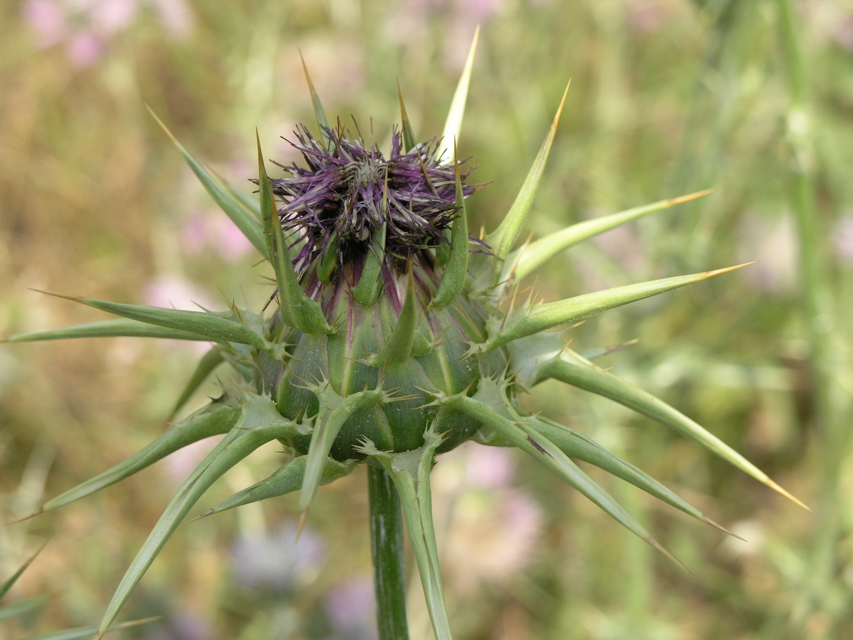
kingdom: Plantae
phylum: Tracheophyta
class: Magnoliopsida
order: Asterales
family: Asteraceae
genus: Silybum
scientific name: Silybum marianum
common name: Milk thistle
